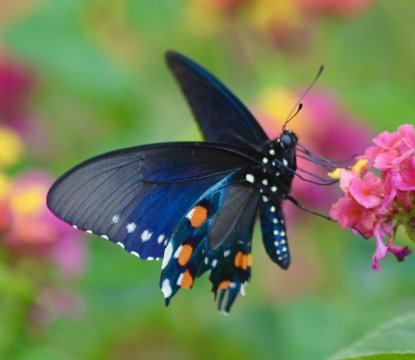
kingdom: Animalia
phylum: Arthropoda
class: Insecta
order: Lepidoptera
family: Papilionidae
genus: Battus
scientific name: Battus philenor
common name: Pipevine Swallowtail
